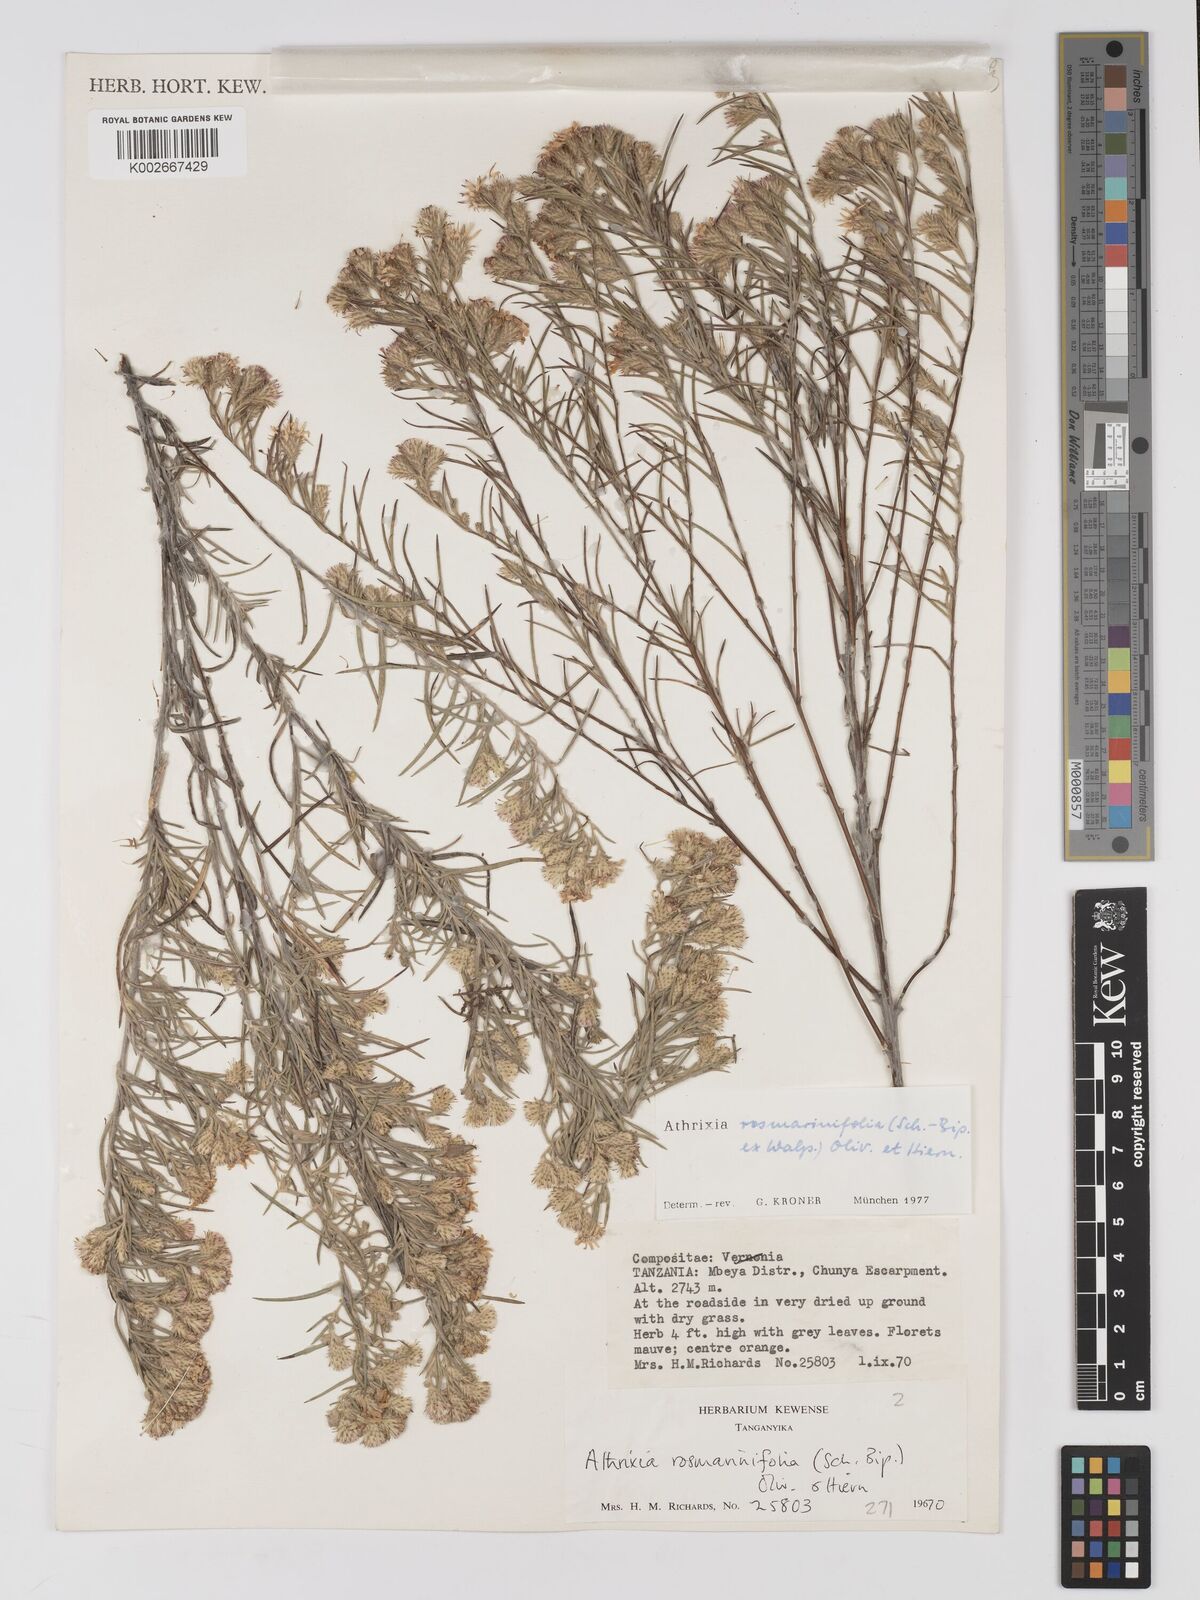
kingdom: Plantae
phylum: Tracheophyta
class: Magnoliopsida
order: Asterales
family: Asteraceae
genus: Athrixia
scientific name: Athrixia rosmarinifolia
